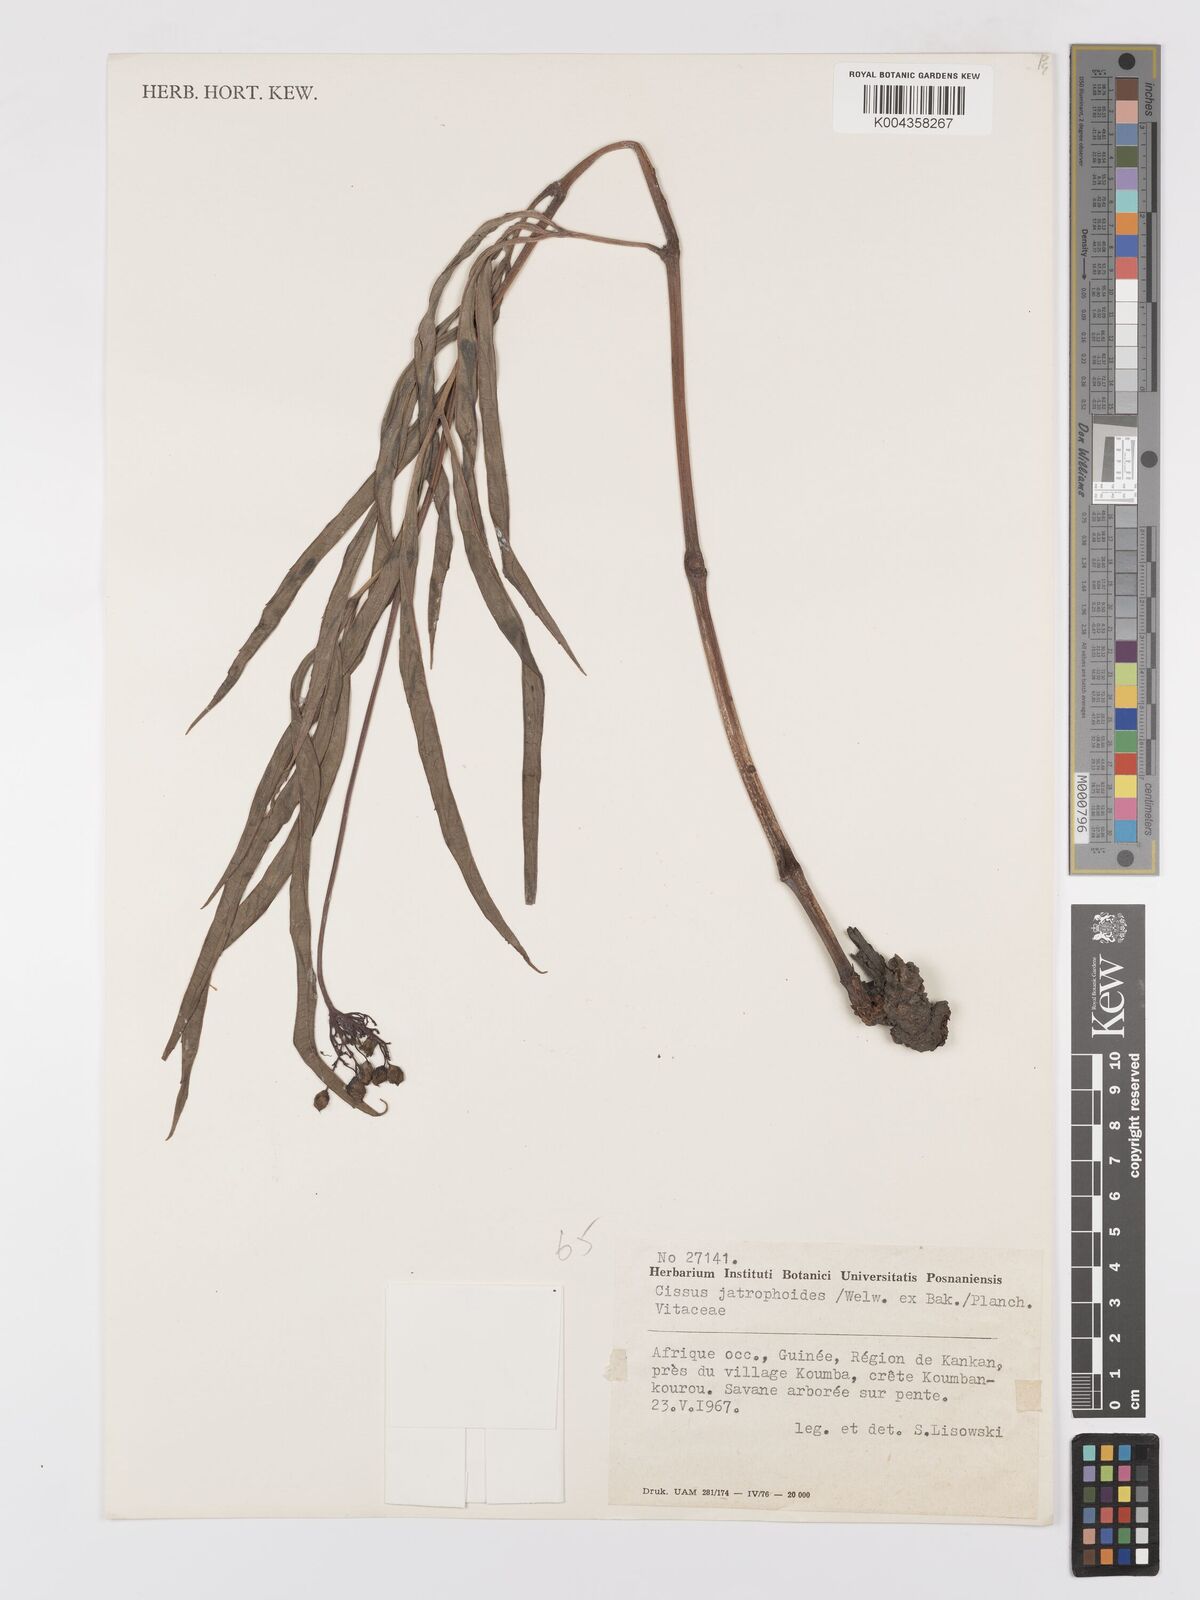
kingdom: Plantae
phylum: Tracheophyta
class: Magnoliopsida
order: Vitales
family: Vitaceae
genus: Cayratia
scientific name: Cayratia
